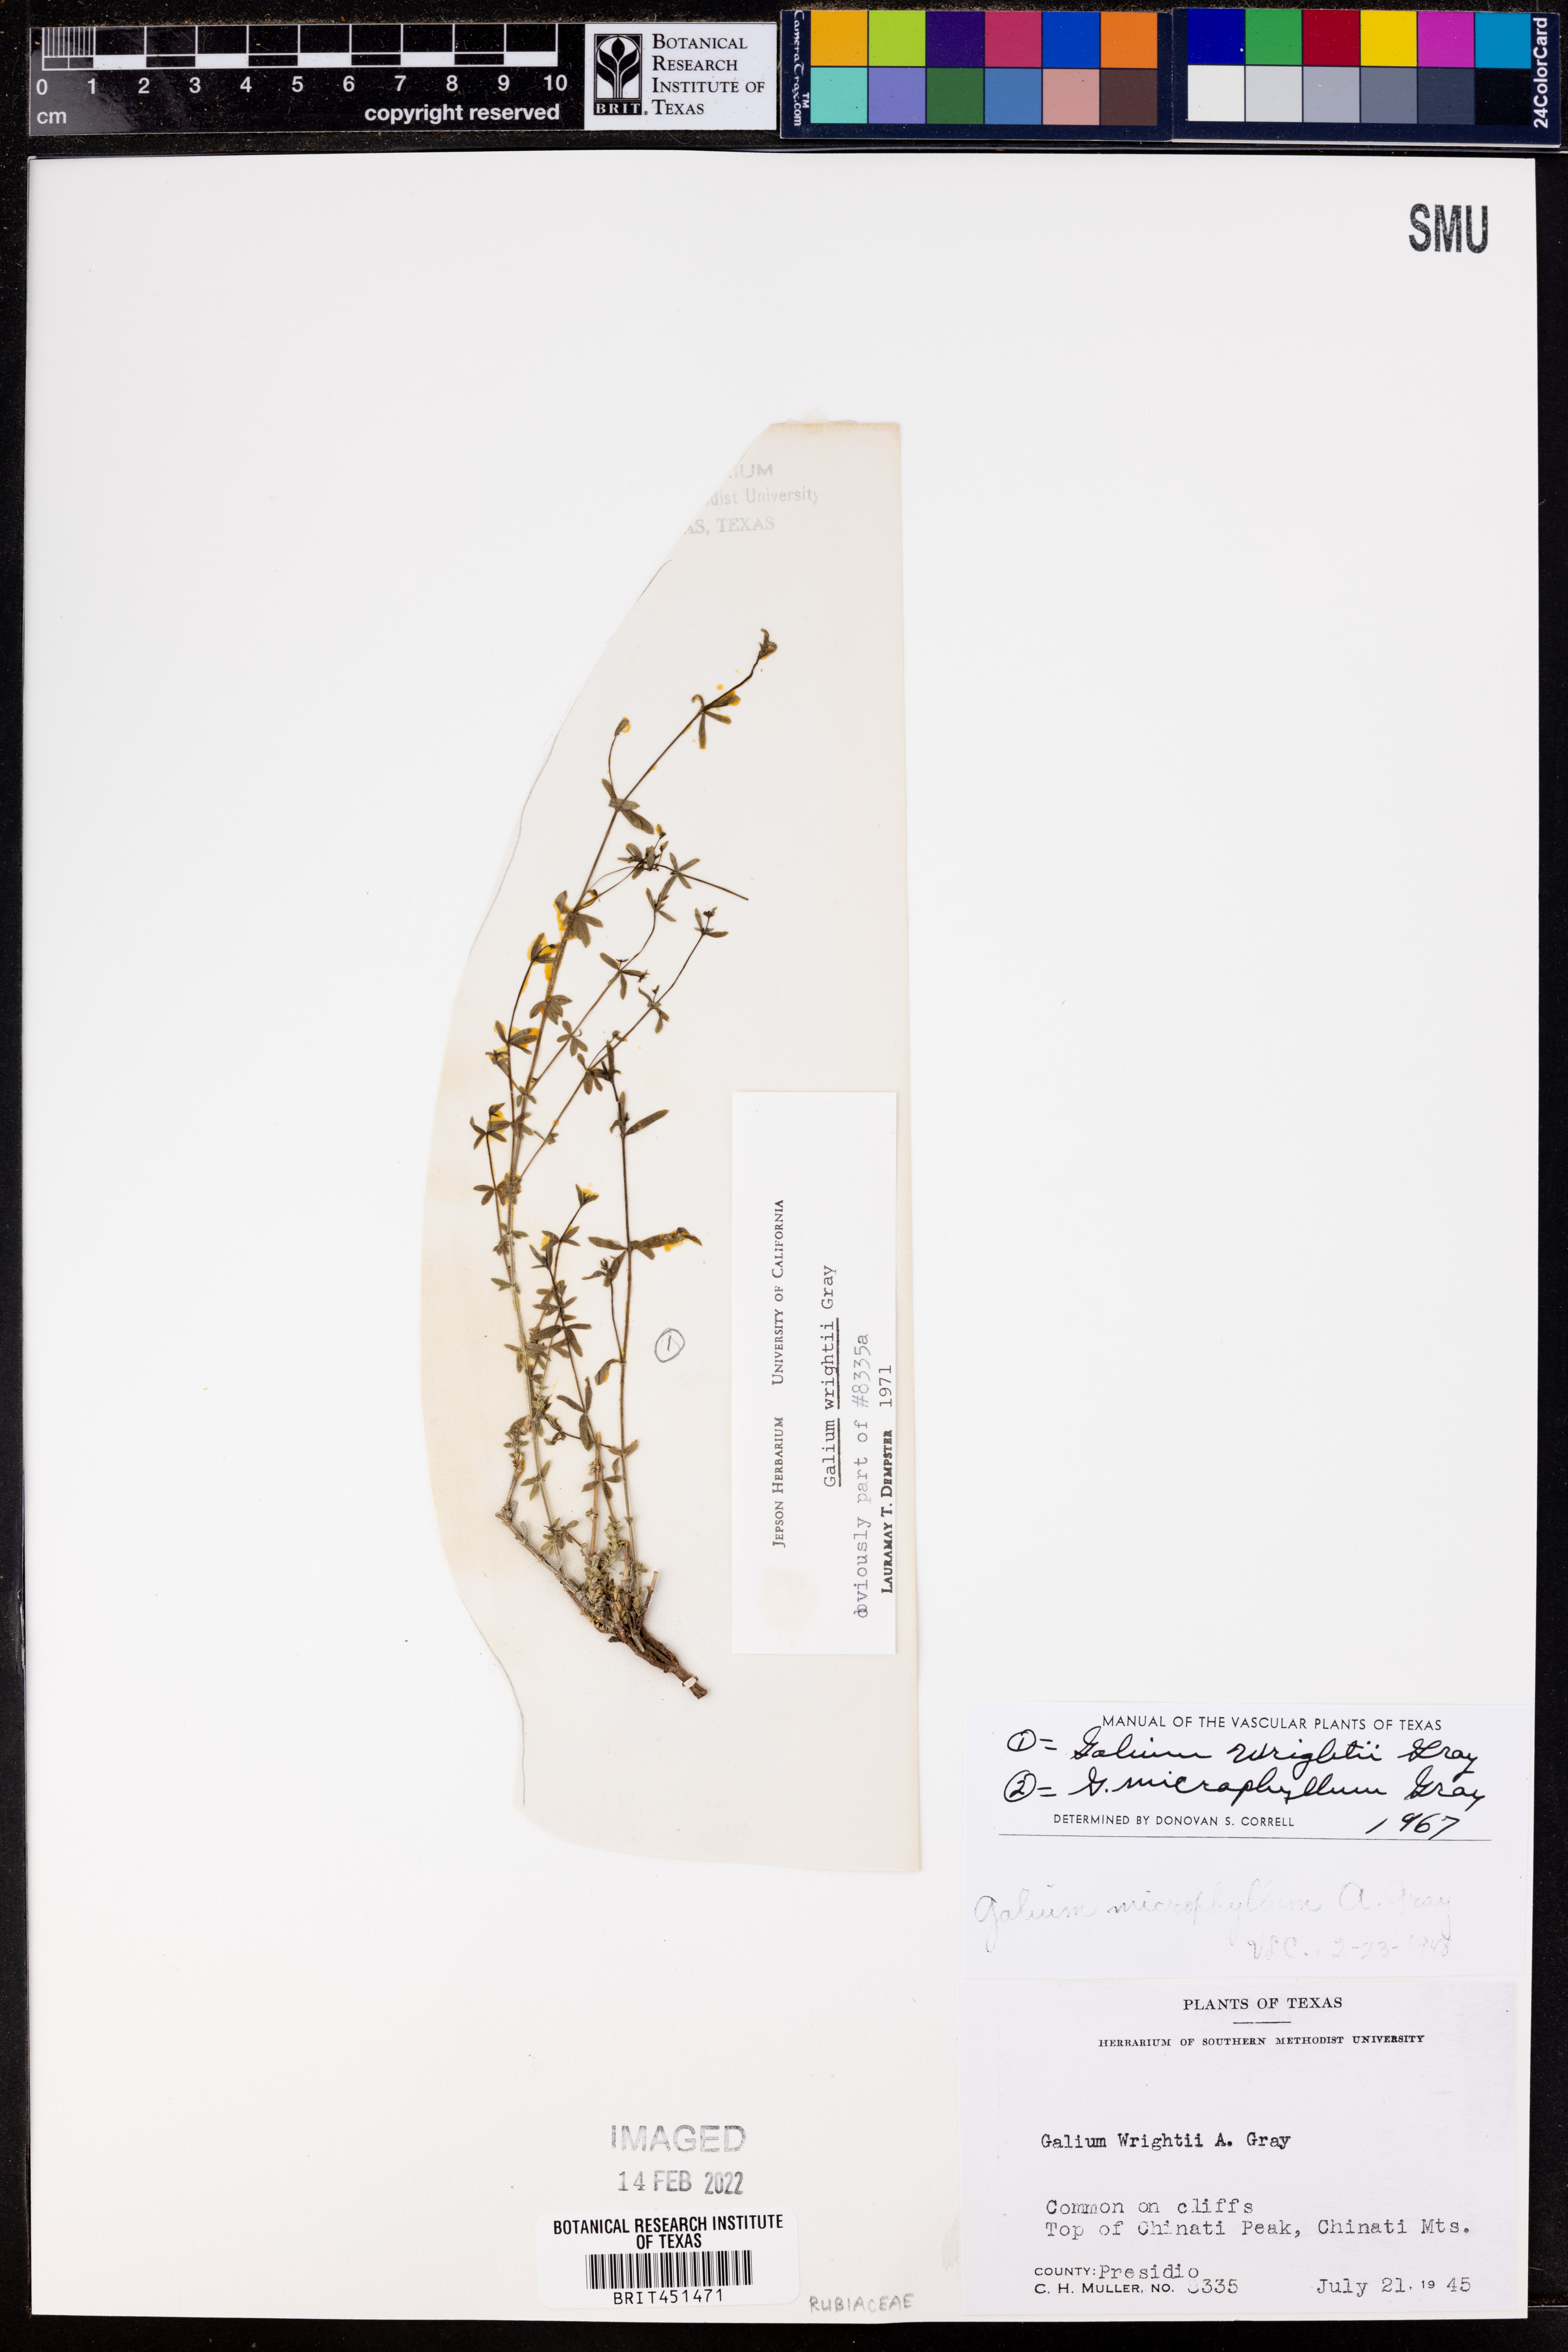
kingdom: Plantae
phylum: Tracheophyta
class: Magnoliopsida
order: Gentianales
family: Rubiaceae
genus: Galium
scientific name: Galium wrightii
